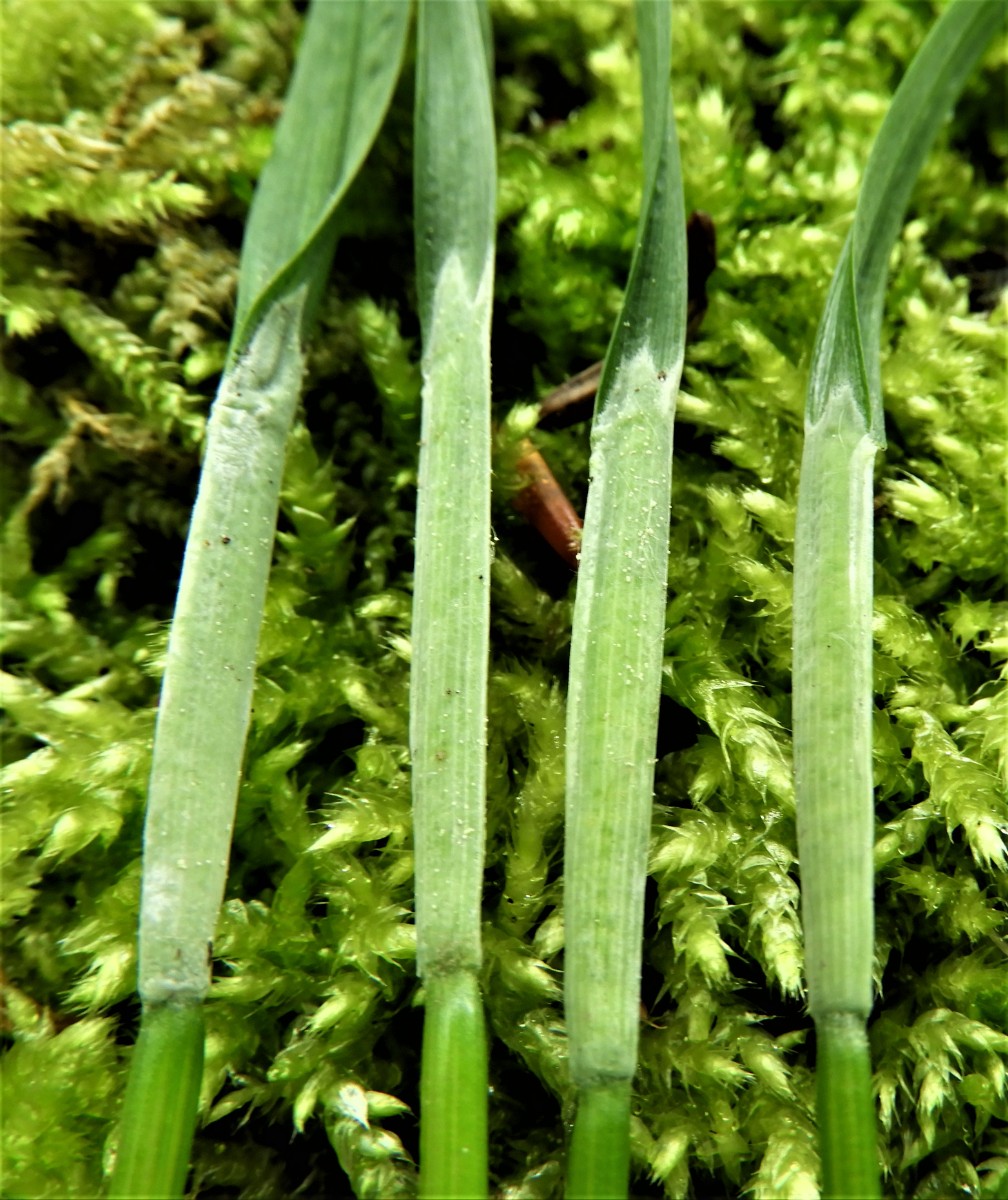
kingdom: Fungi
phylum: Ascomycota
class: Sordariomycetes
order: Hypocreales
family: Clavicipitaceae
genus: Epichloe
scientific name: Epichloe
